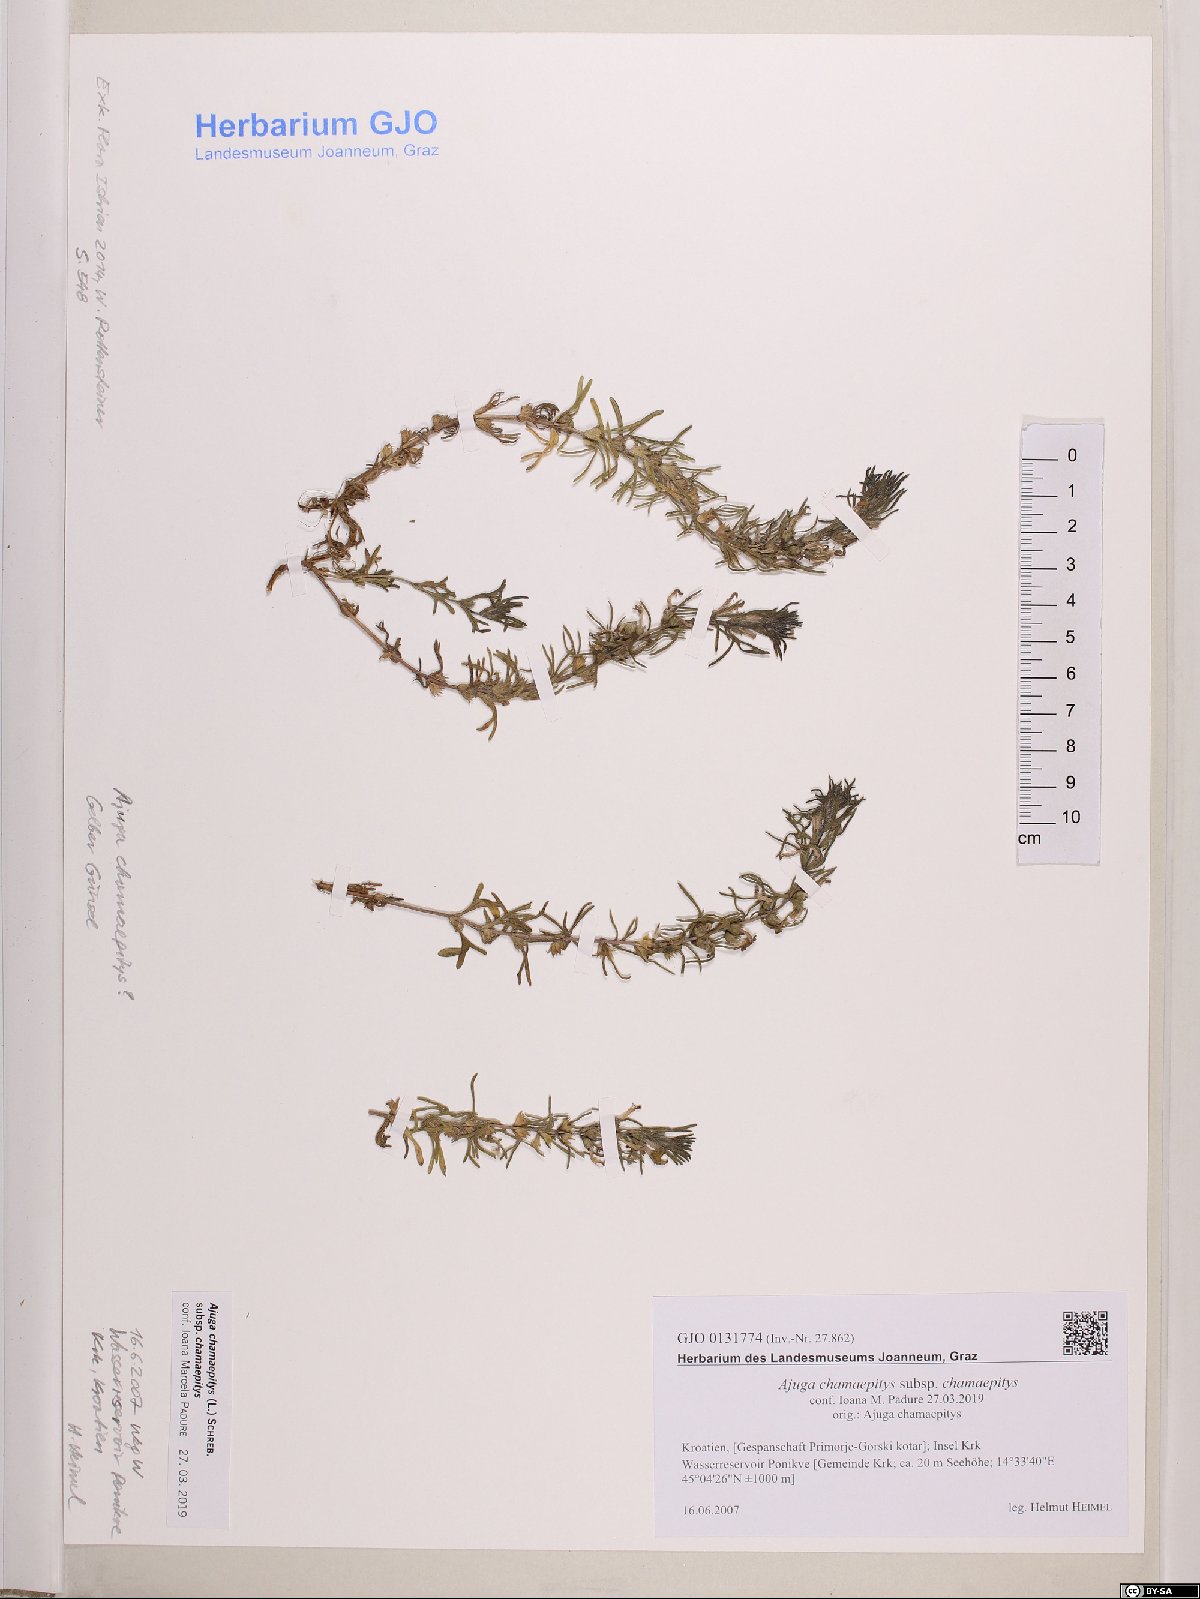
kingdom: Plantae
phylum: Tracheophyta
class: Magnoliopsida
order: Lamiales
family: Lamiaceae
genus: Ajuga
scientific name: Ajuga chamaepitys
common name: Ground-pine
